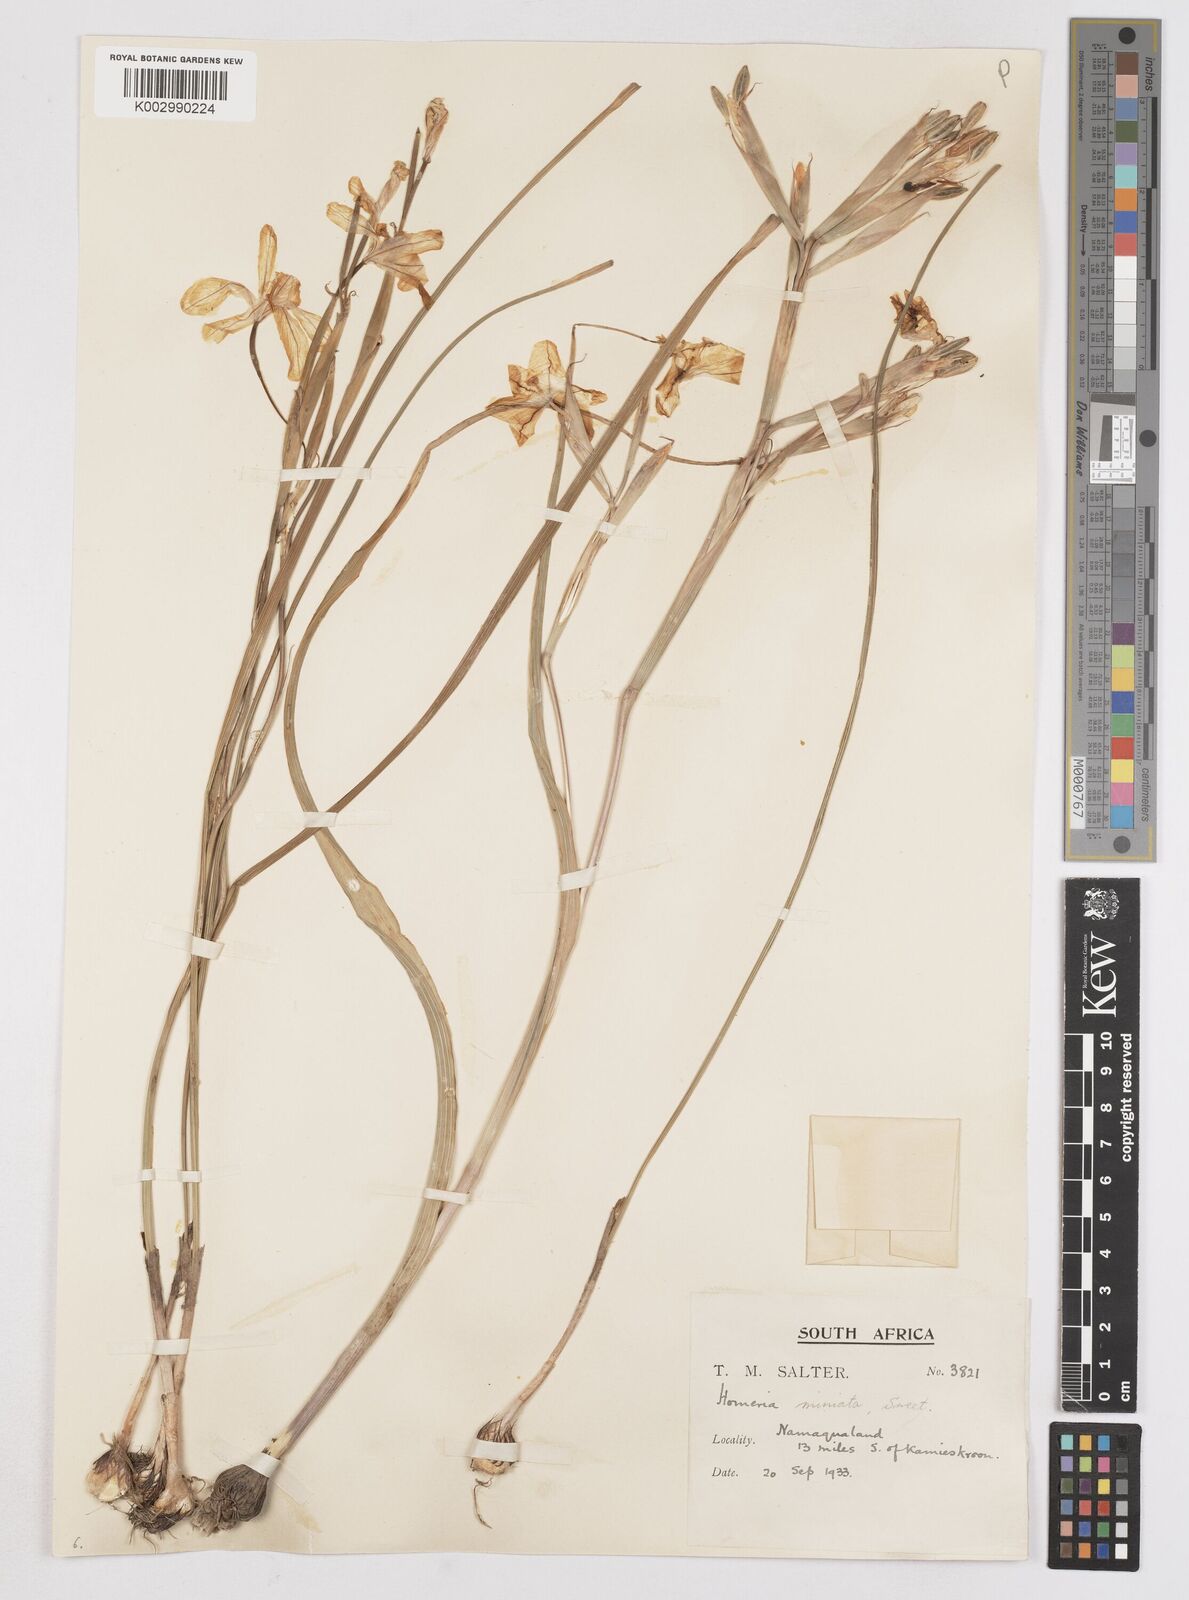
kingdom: Plantae
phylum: Tracheophyta
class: Liliopsida
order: Asparagales
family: Iridaceae
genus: Moraea
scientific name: Moraea miniata
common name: Two-leaf cape-tulip
